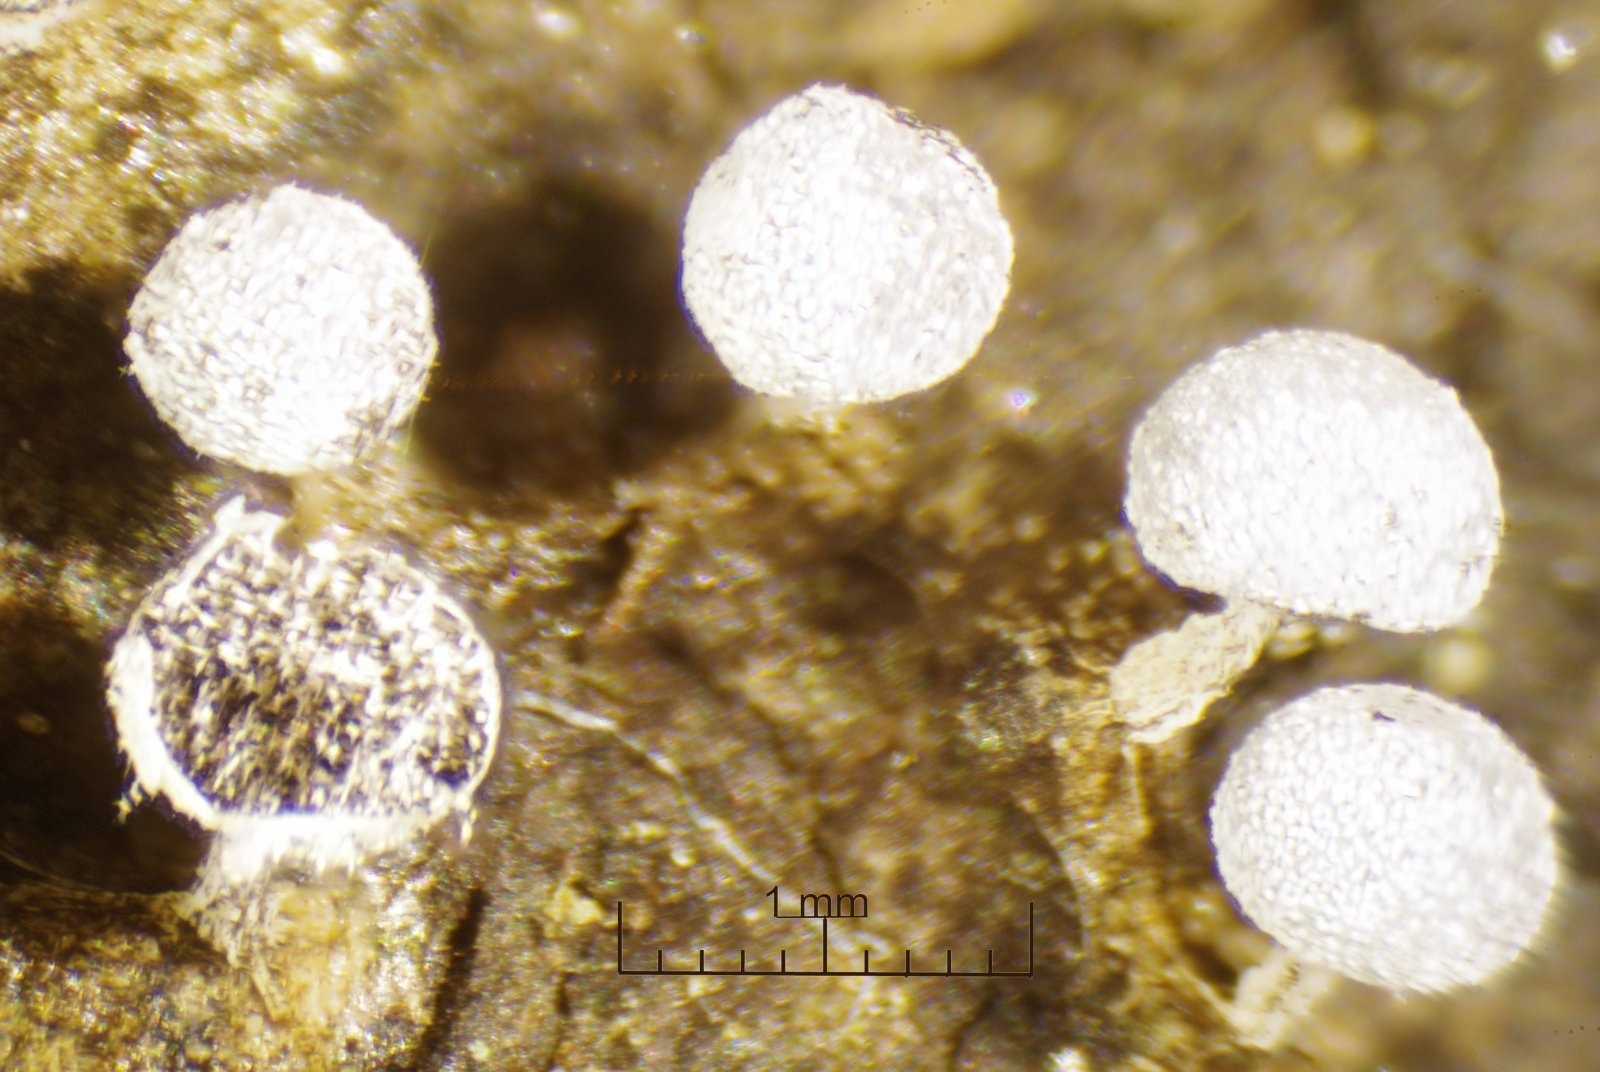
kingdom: Protozoa
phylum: Mycetozoa
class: Myxomycetes
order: Physarales
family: Physaraceae
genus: Physarum
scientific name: Physarum notabile
